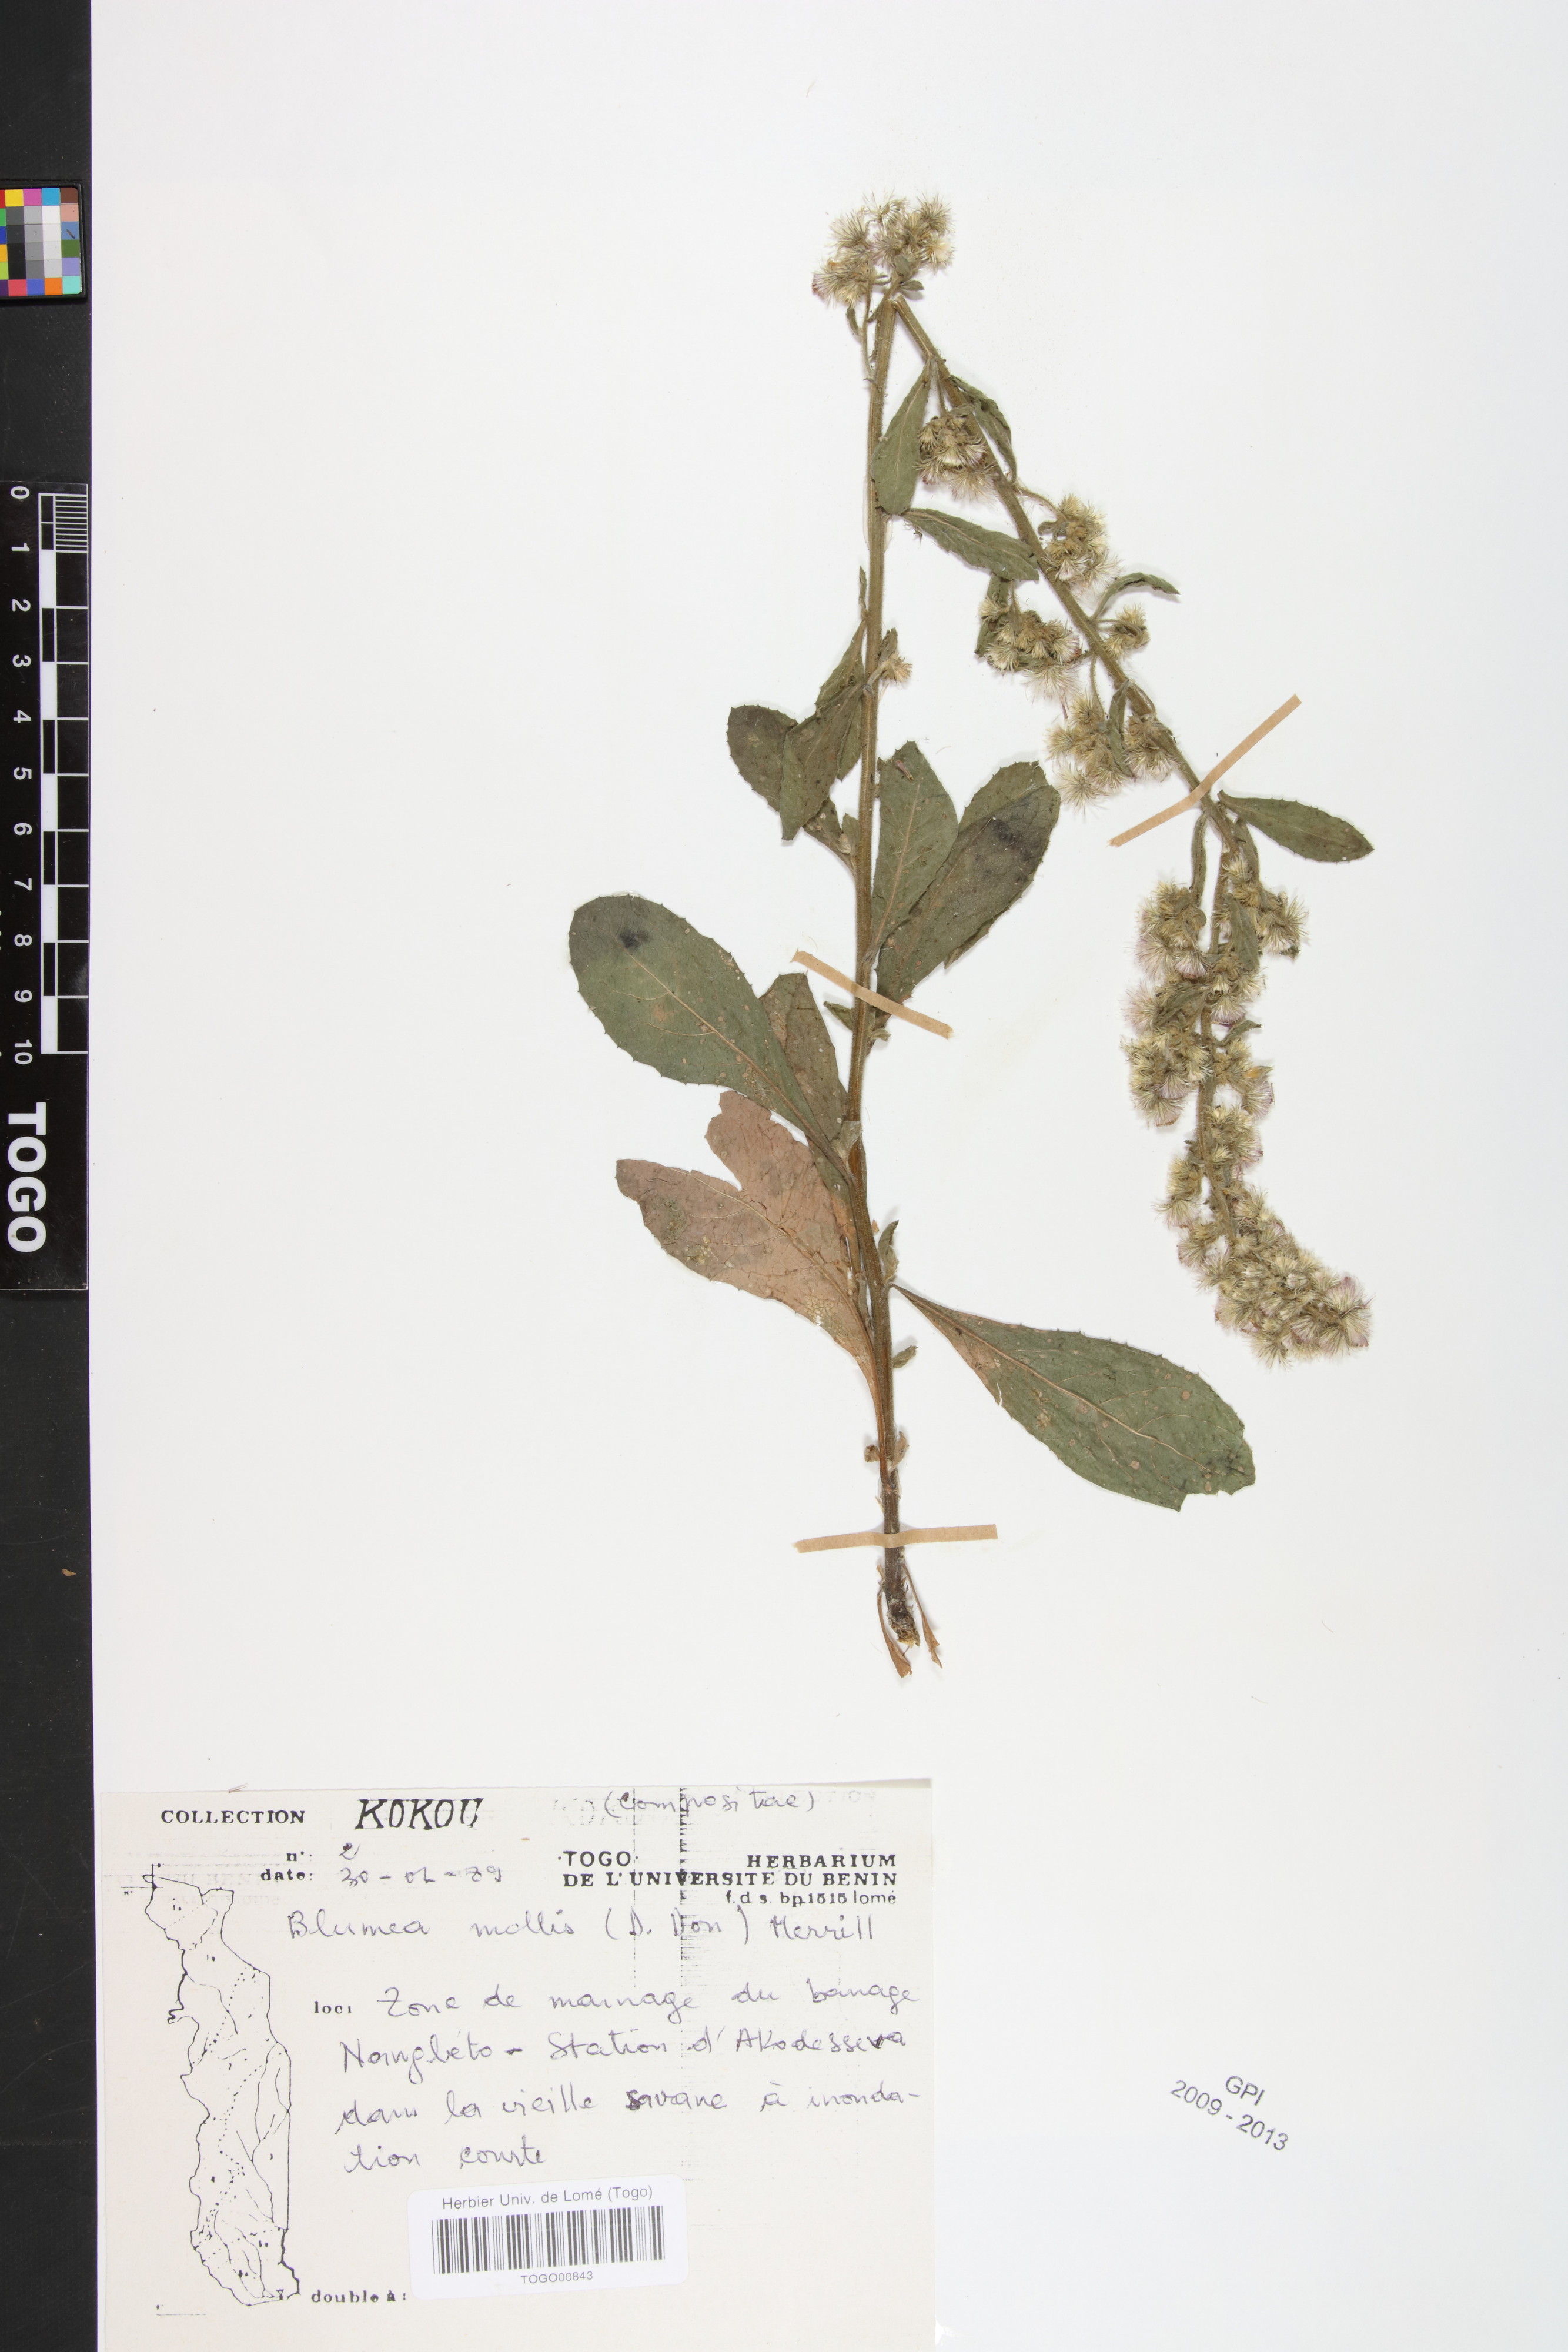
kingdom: Plantae
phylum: Tracheophyta
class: Magnoliopsida
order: Asterales
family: Asteraceae
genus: Blumea
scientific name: Blumea axillaris
